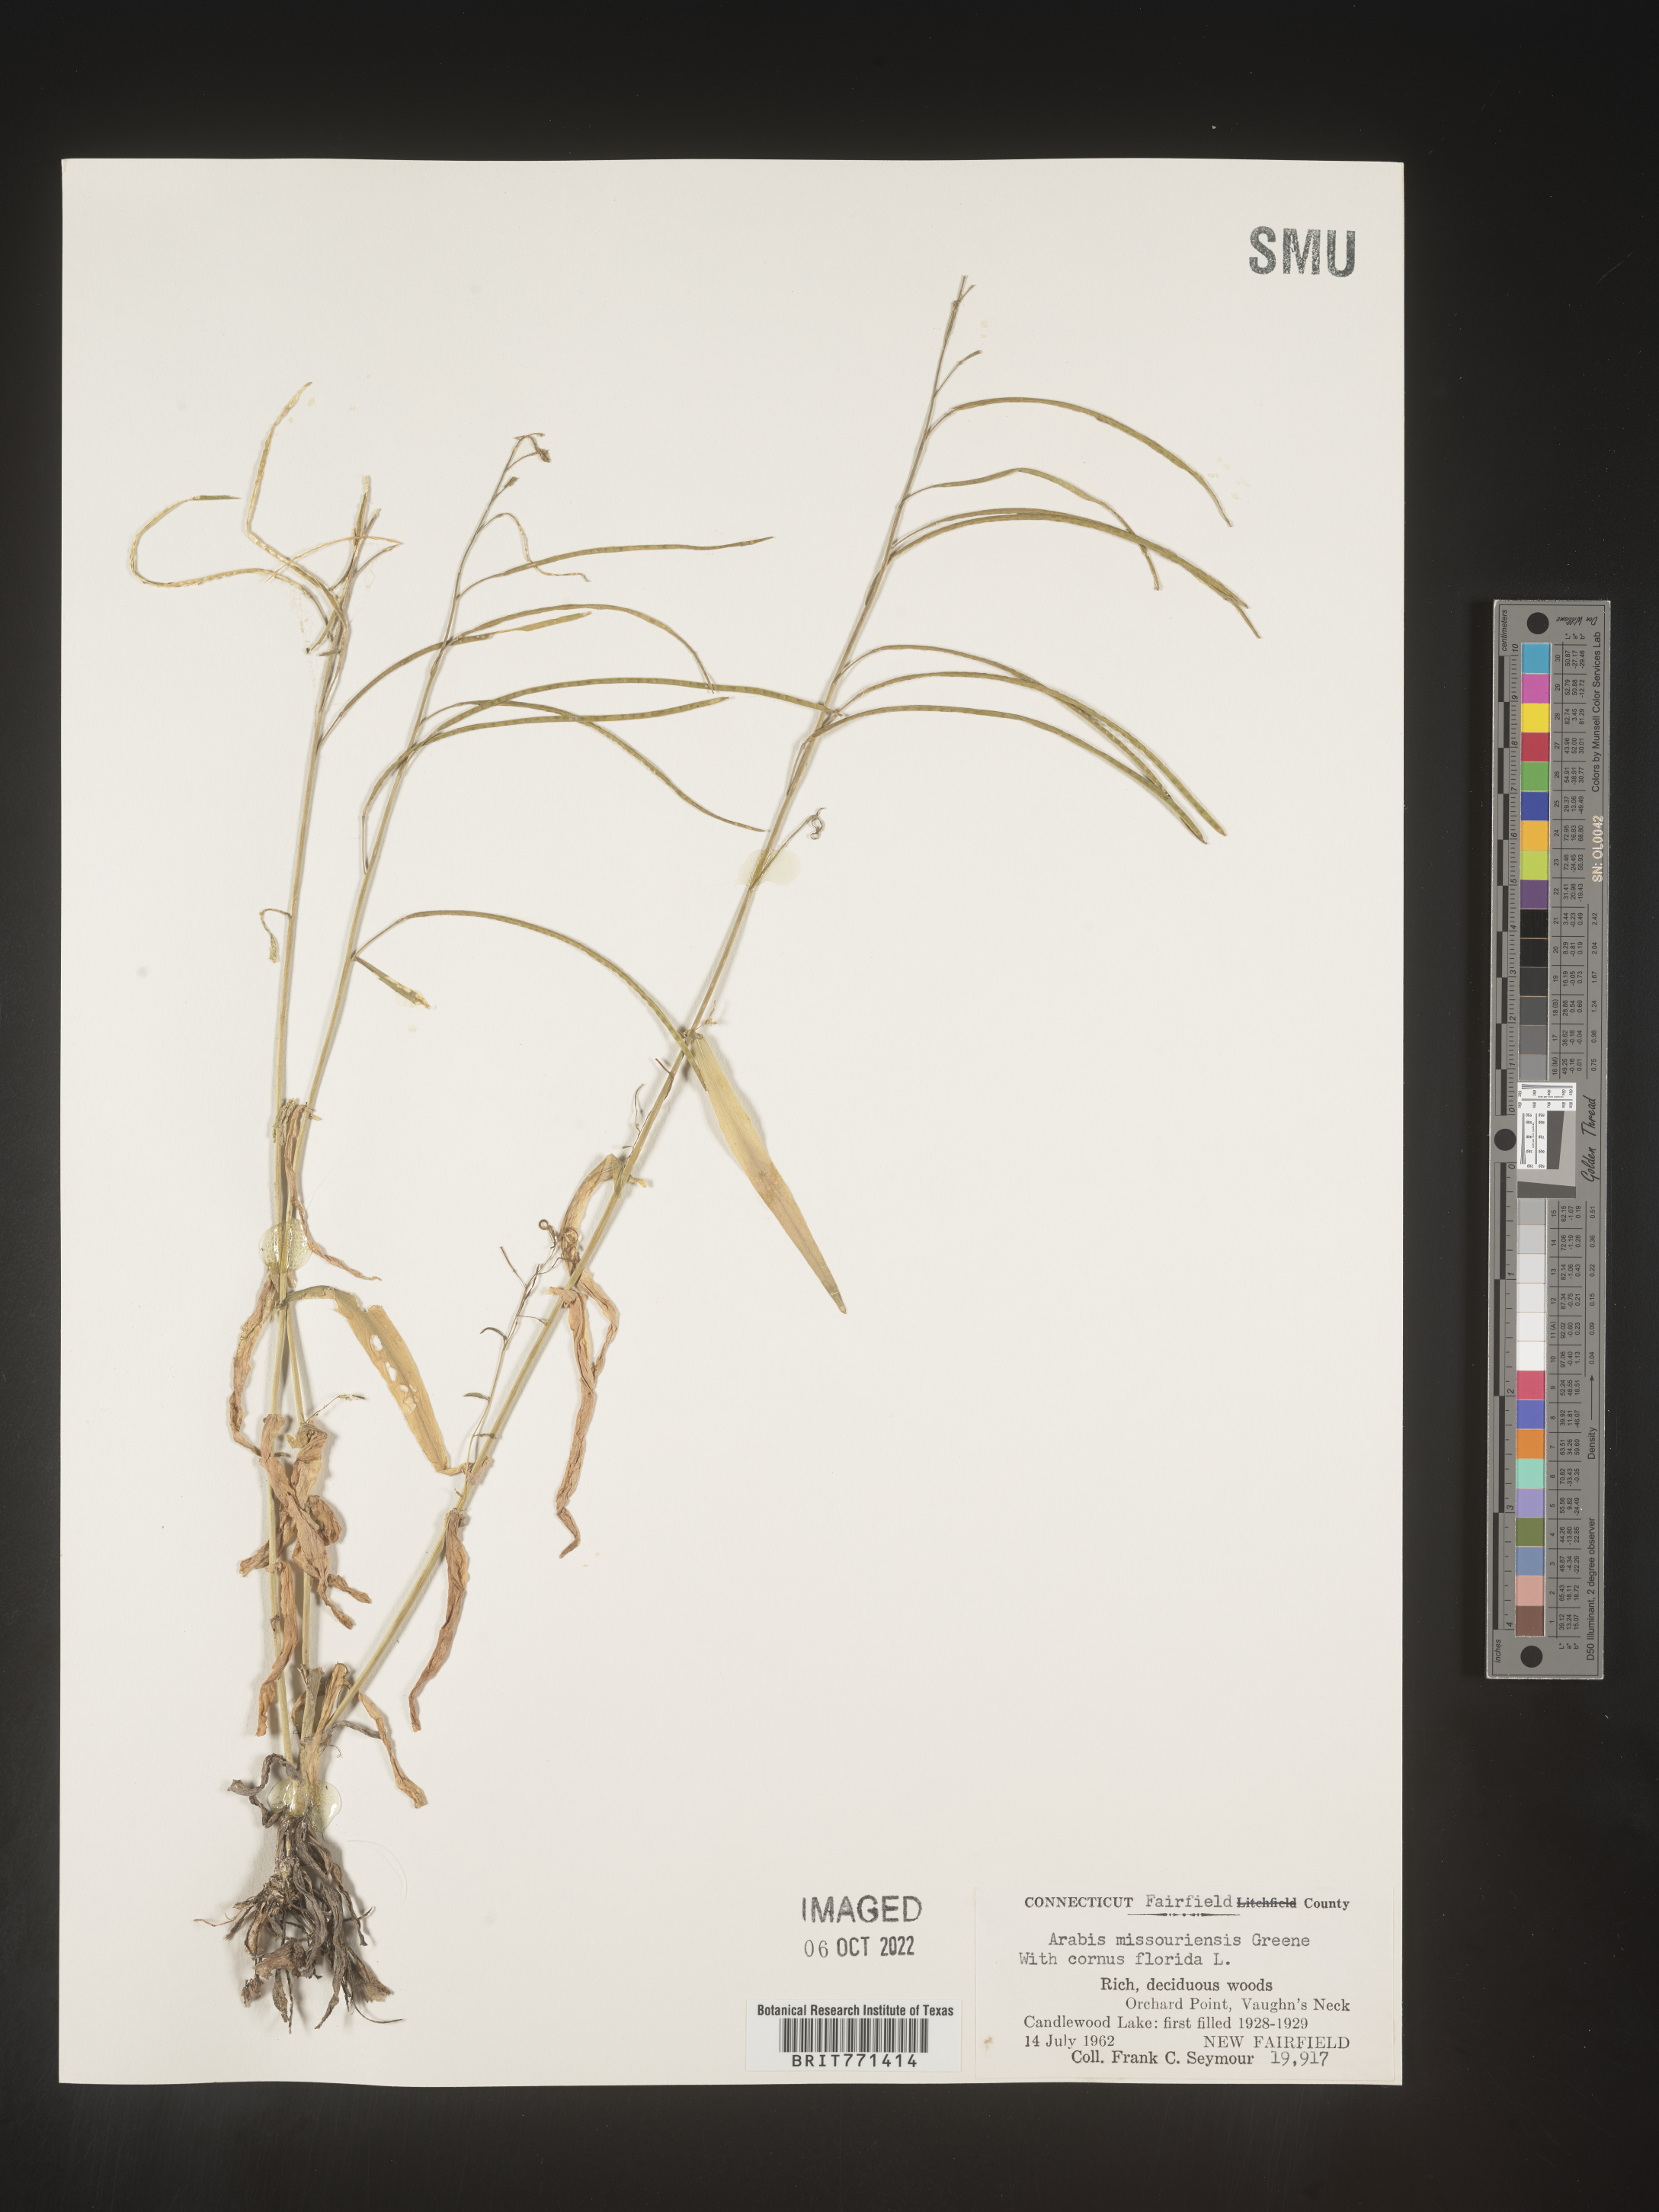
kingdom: Plantae
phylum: Tracheophyta
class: Magnoliopsida
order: Brassicales
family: Brassicaceae
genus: Arabis
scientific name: Arabis
